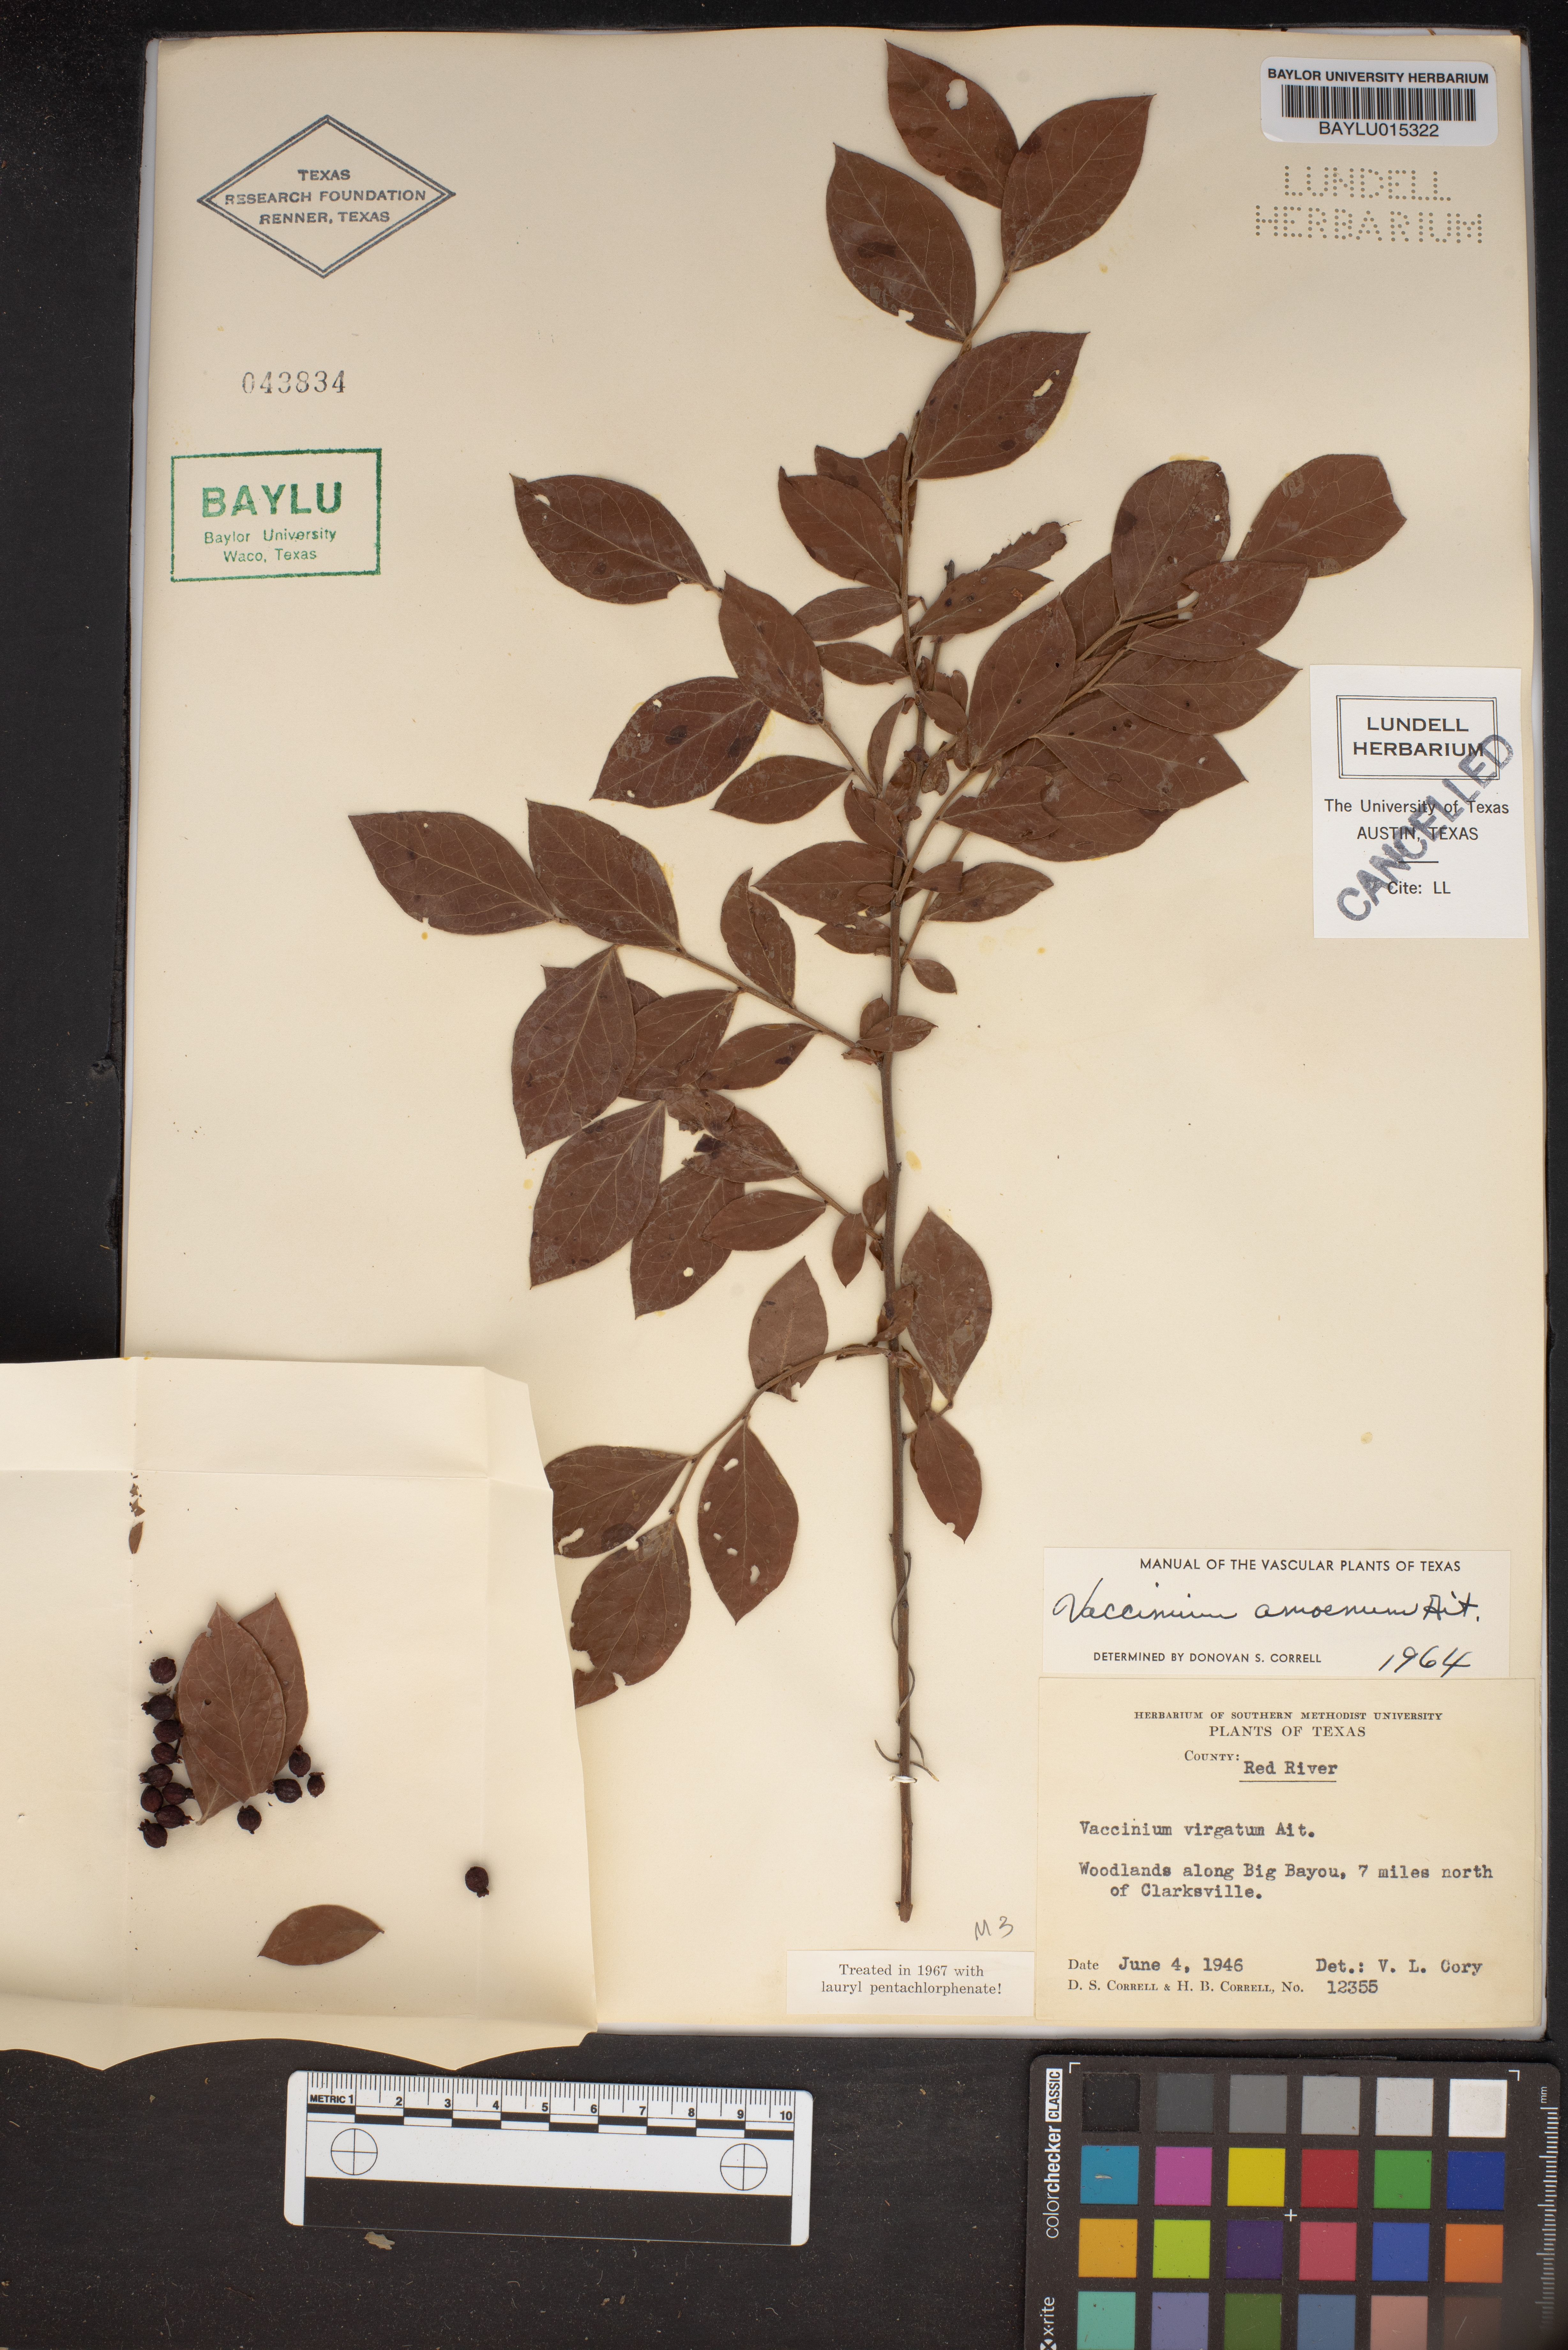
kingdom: Plantae
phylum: Tracheophyta
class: Magnoliopsida
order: Ericales
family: Ericaceae
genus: Vaccinium
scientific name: Vaccinium corymbosum
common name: Blueberry
